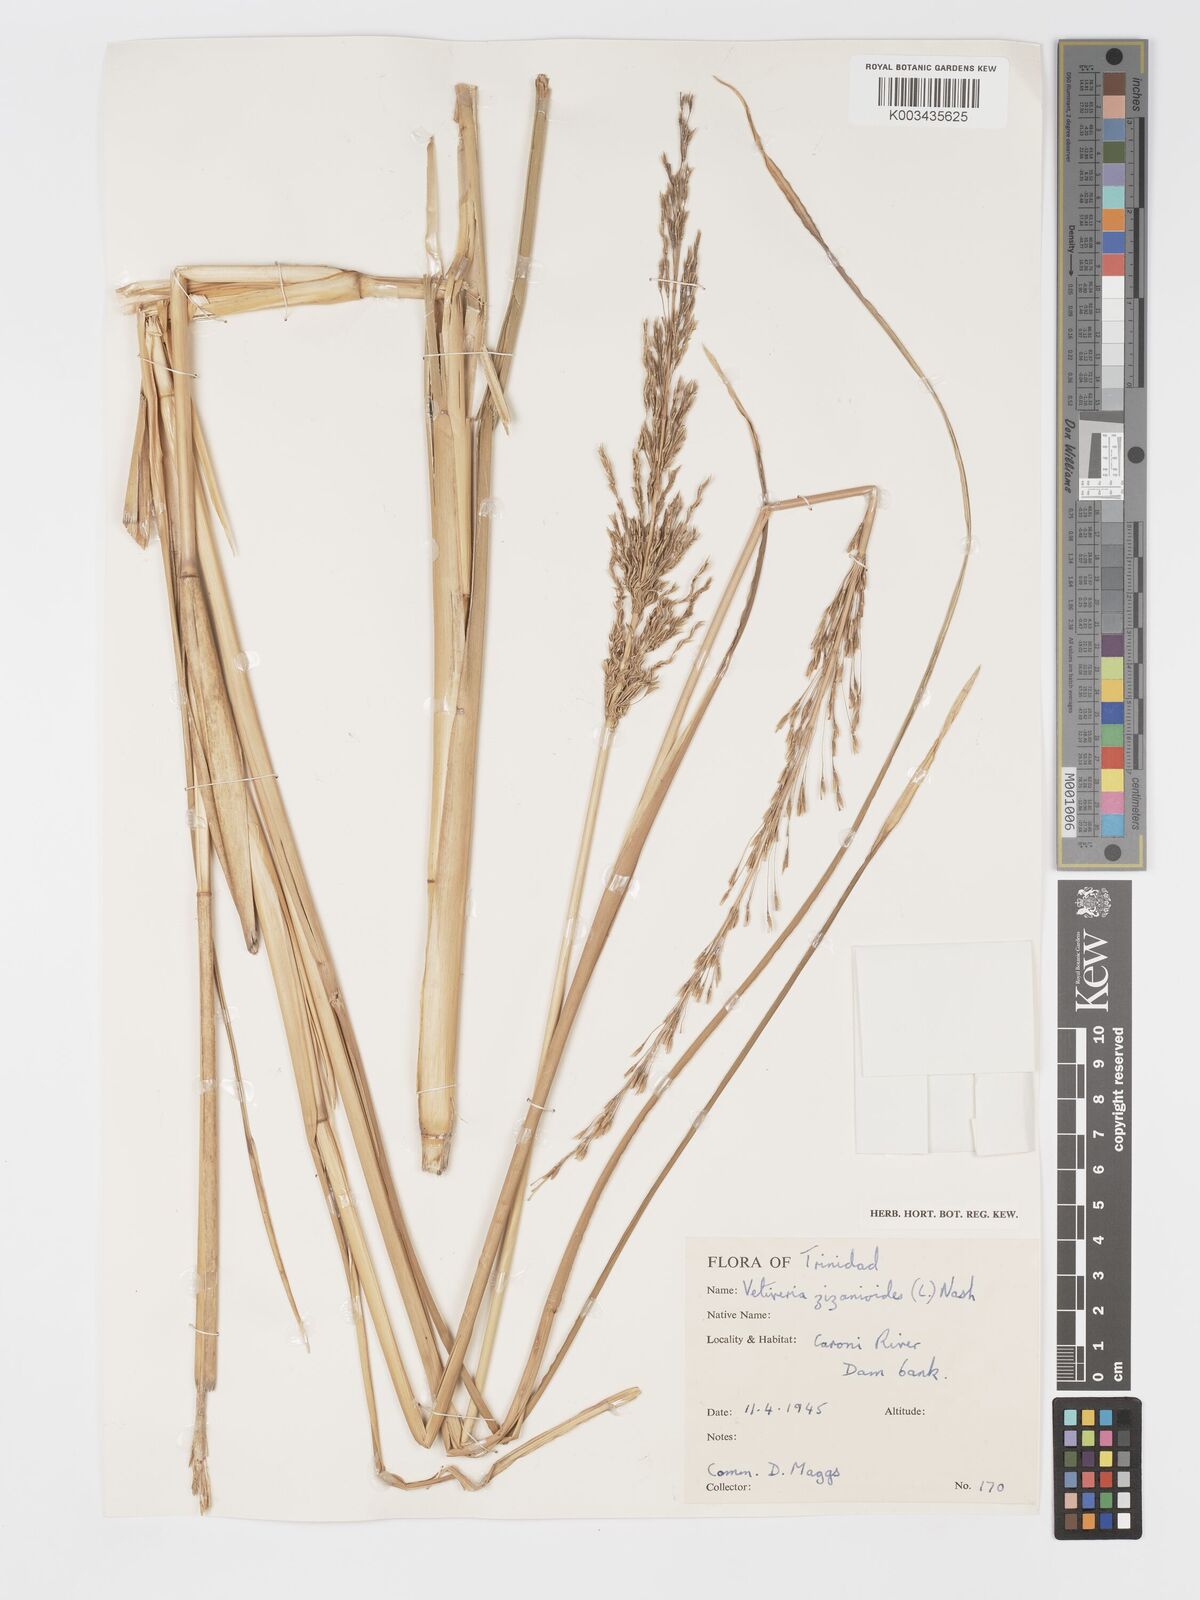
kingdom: Plantae
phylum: Tracheophyta
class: Liliopsida
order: Poales
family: Poaceae
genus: Chrysopogon
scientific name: Chrysopogon zizanioides
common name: False beardgrass
